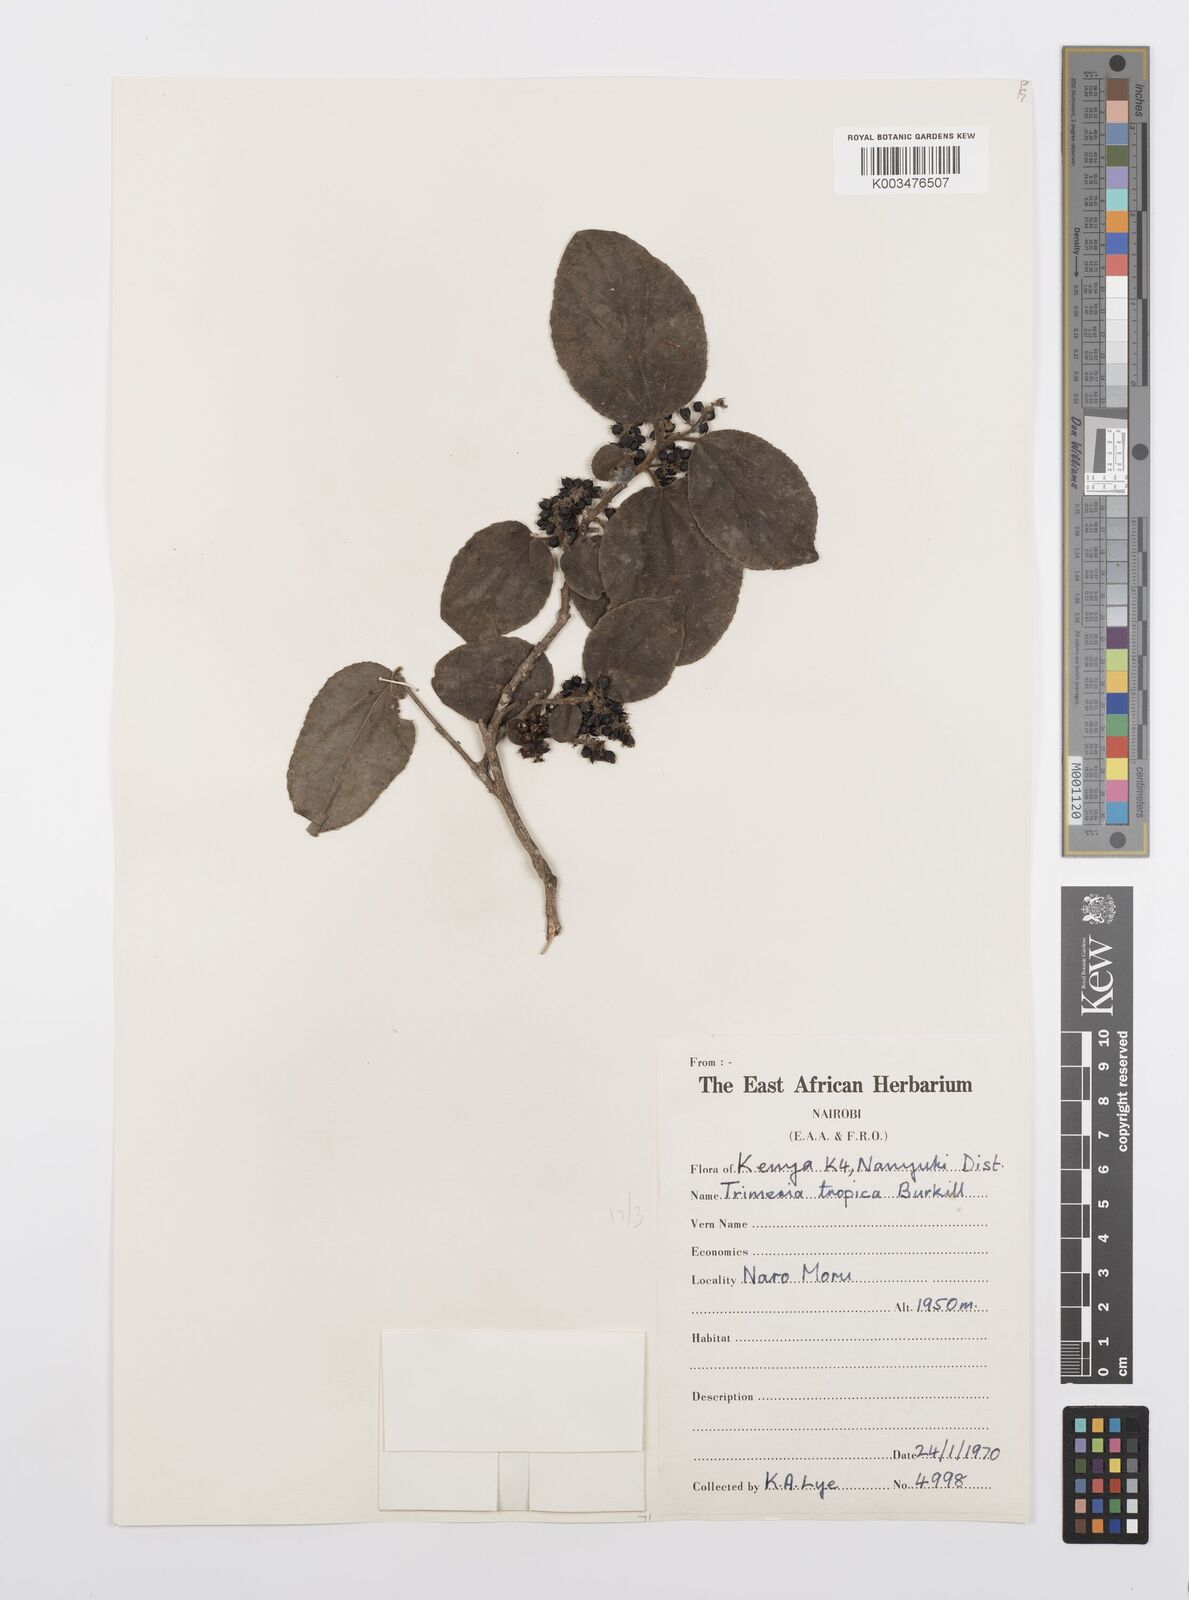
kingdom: Plantae
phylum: Tracheophyta
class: Magnoliopsida
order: Malpighiales
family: Salicaceae
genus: Trimeria
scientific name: Trimeria grandifolia
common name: Wild mulberry
